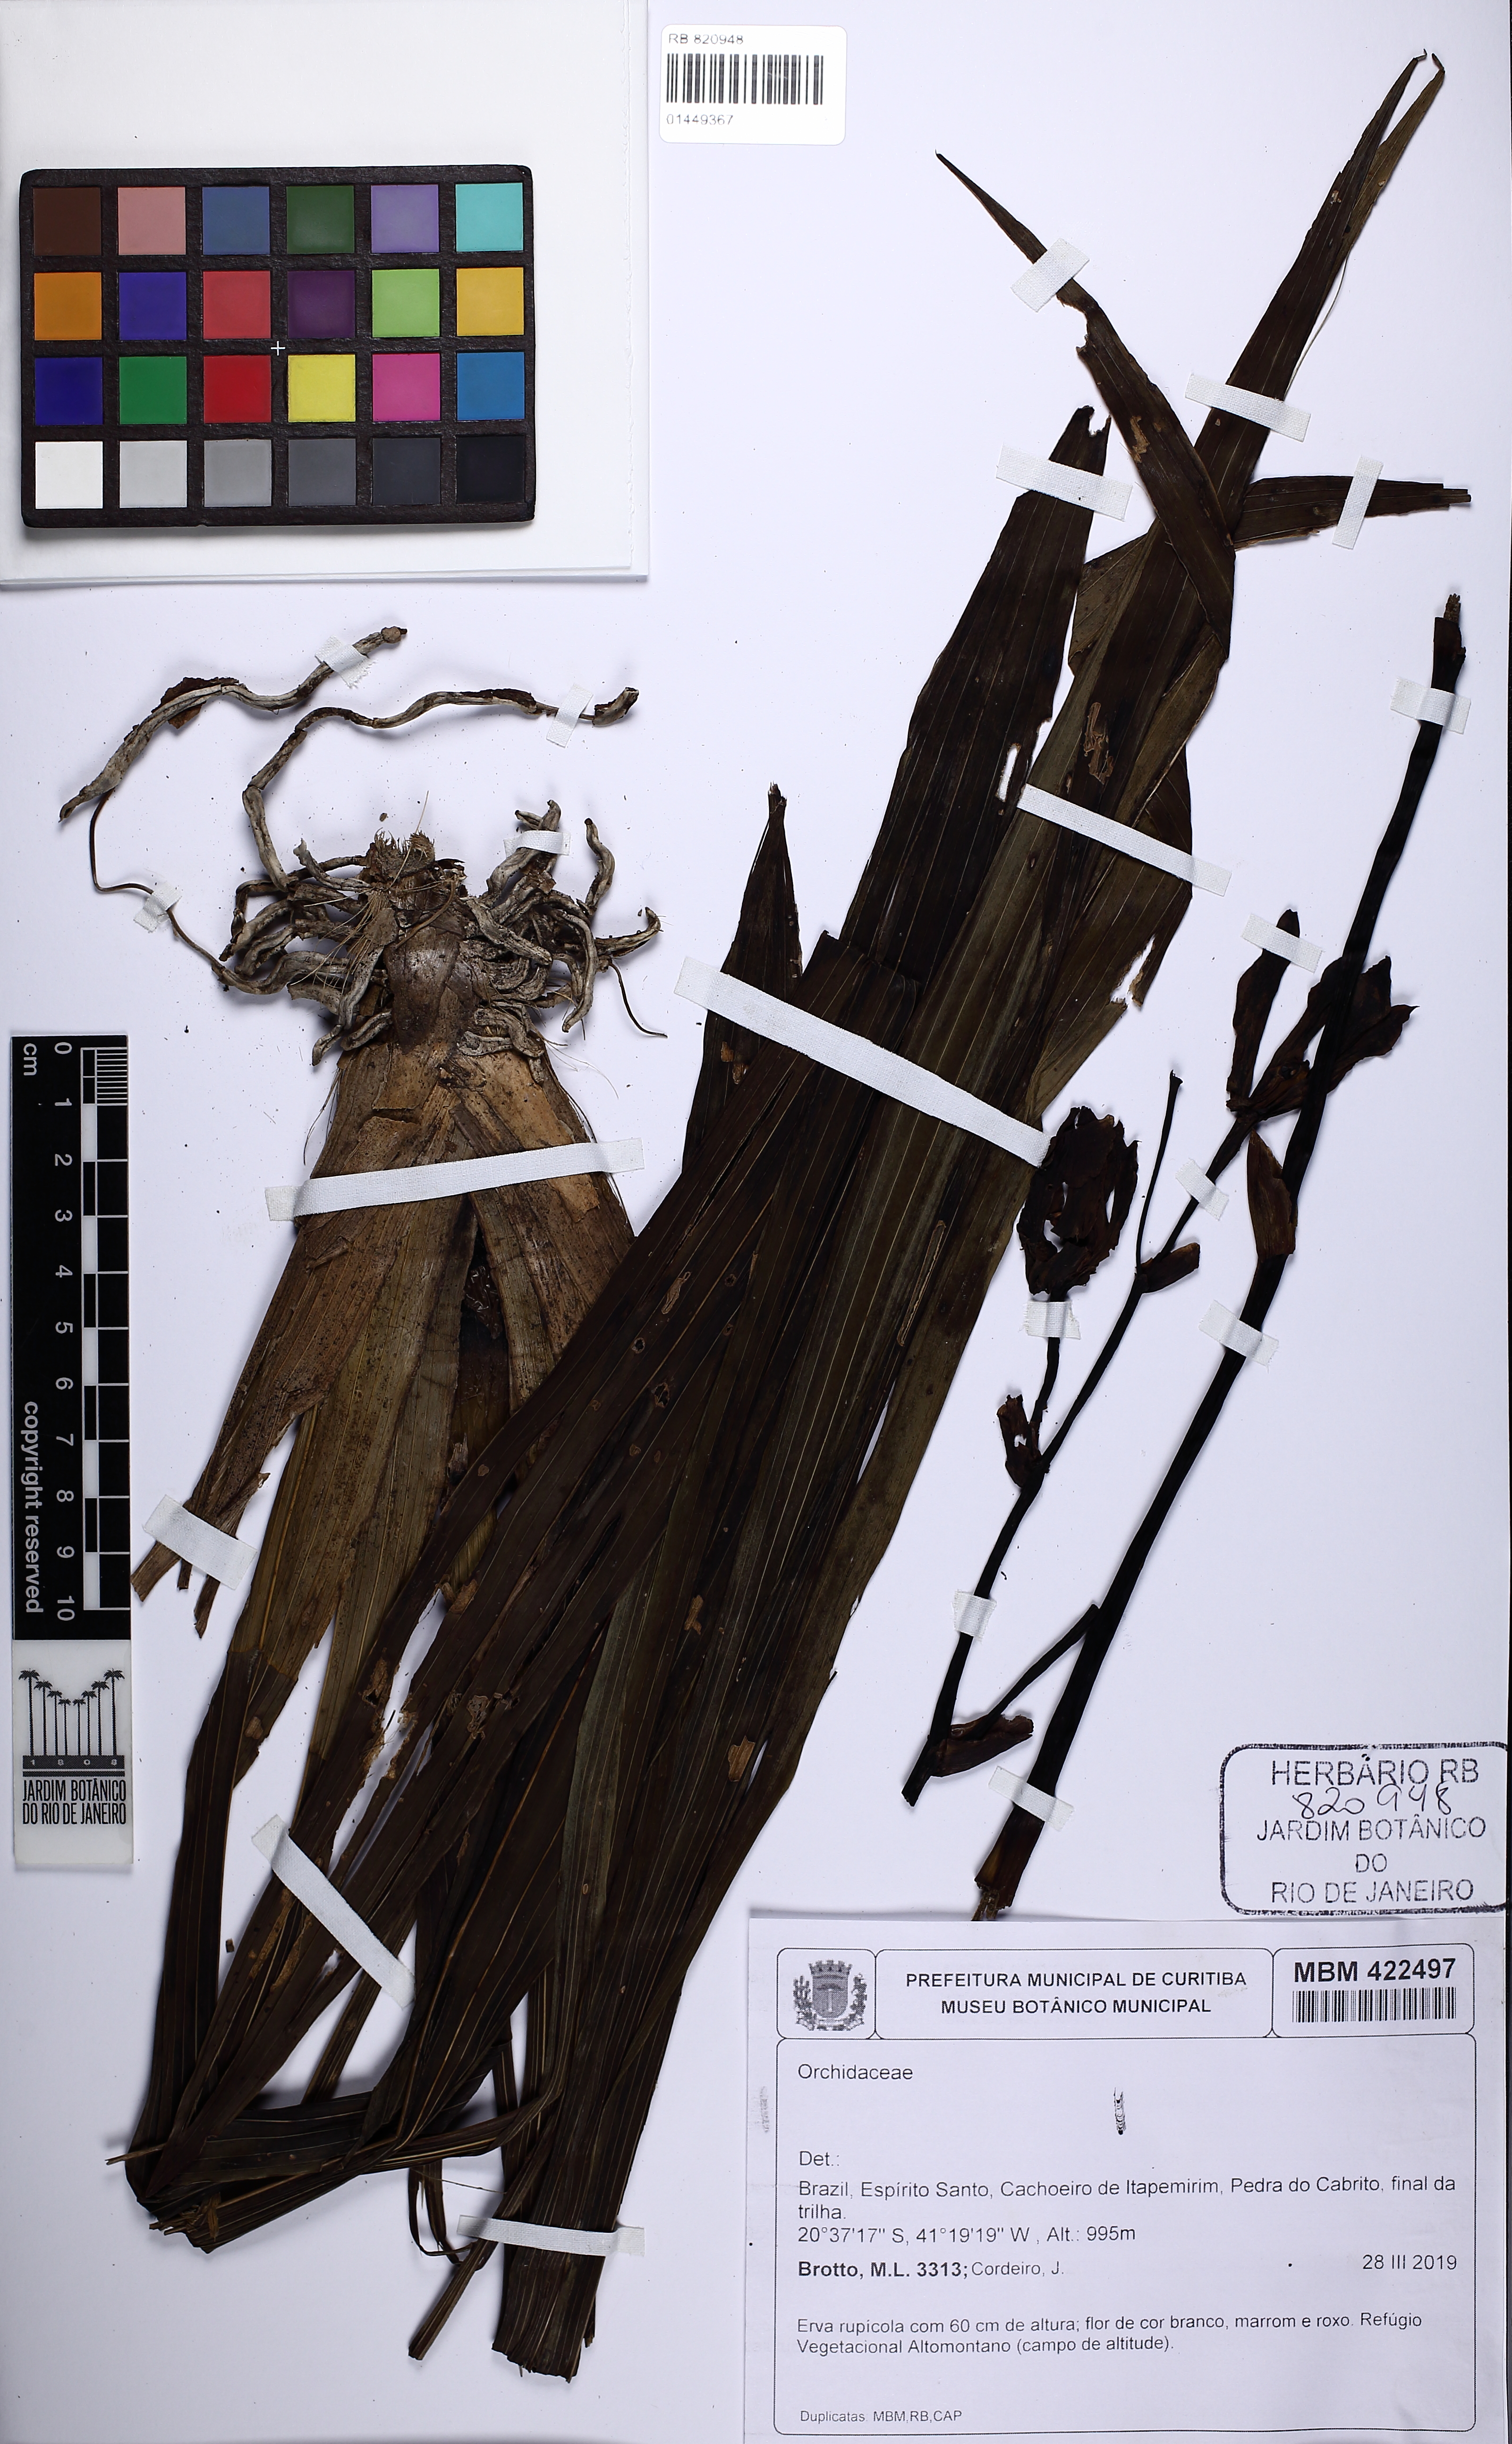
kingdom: Plantae
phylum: Tracheophyta
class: Liliopsida
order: Asparagales
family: Orchidaceae
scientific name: Orchidaceae
